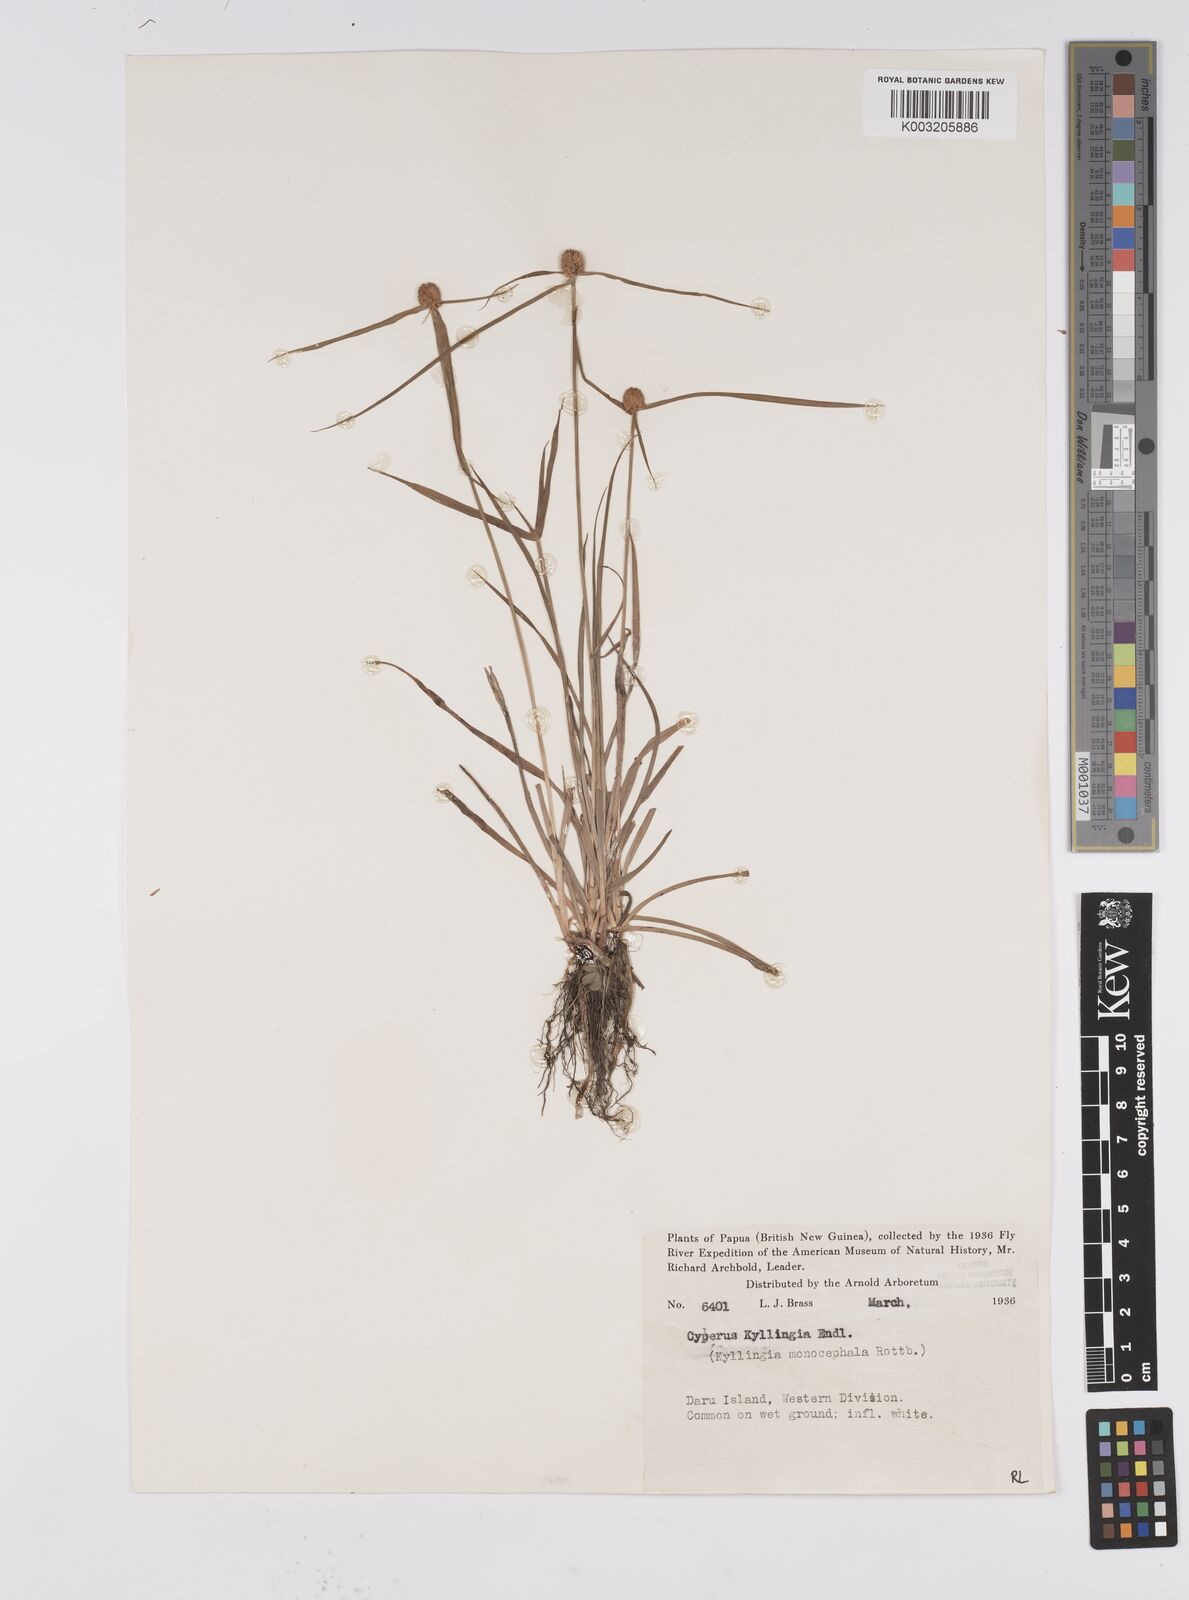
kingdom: Plantae
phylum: Tracheophyta
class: Liliopsida
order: Poales
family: Cyperaceae
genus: Cyperus
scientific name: Cyperus nemoralis
